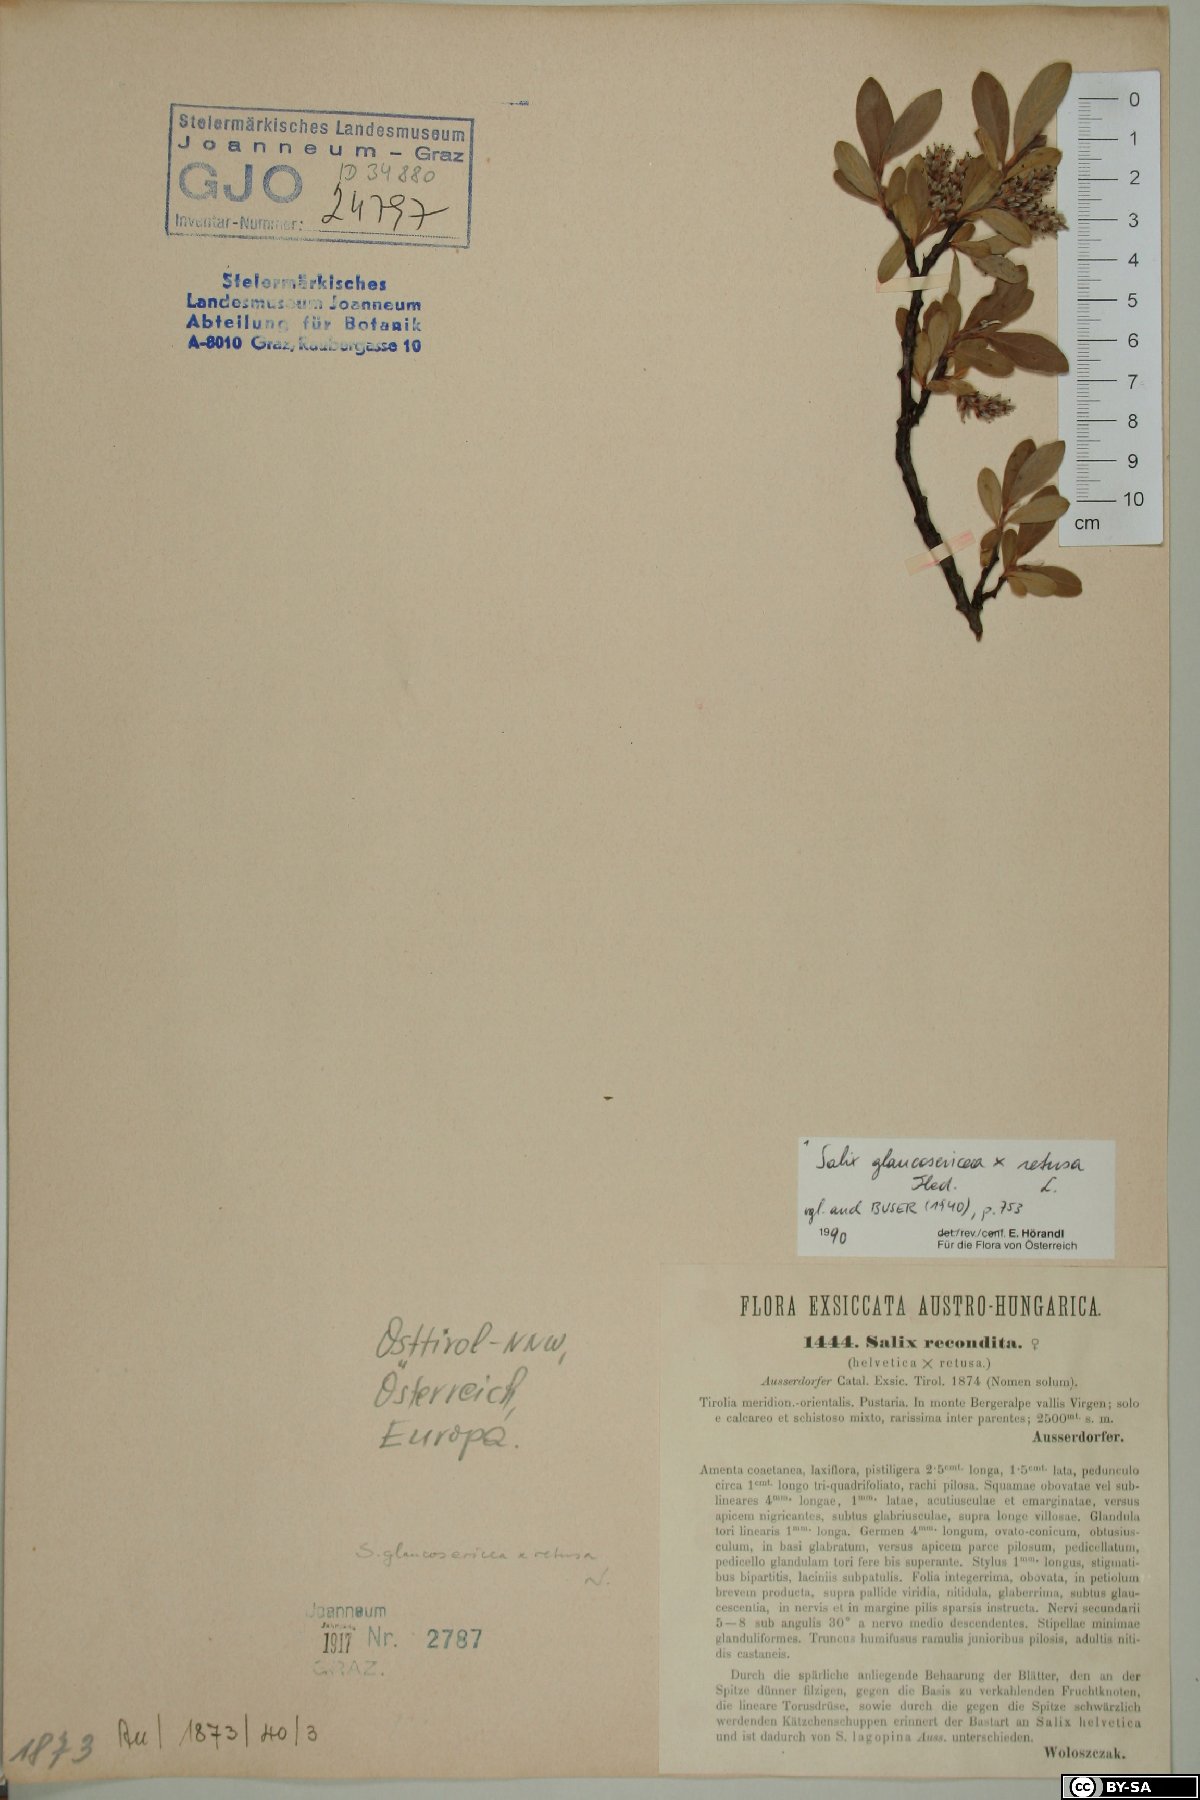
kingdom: Plantae
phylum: Tracheophyta
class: Magnoliopsida
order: Malpighiales
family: Salicaceae
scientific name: Salicaceae
